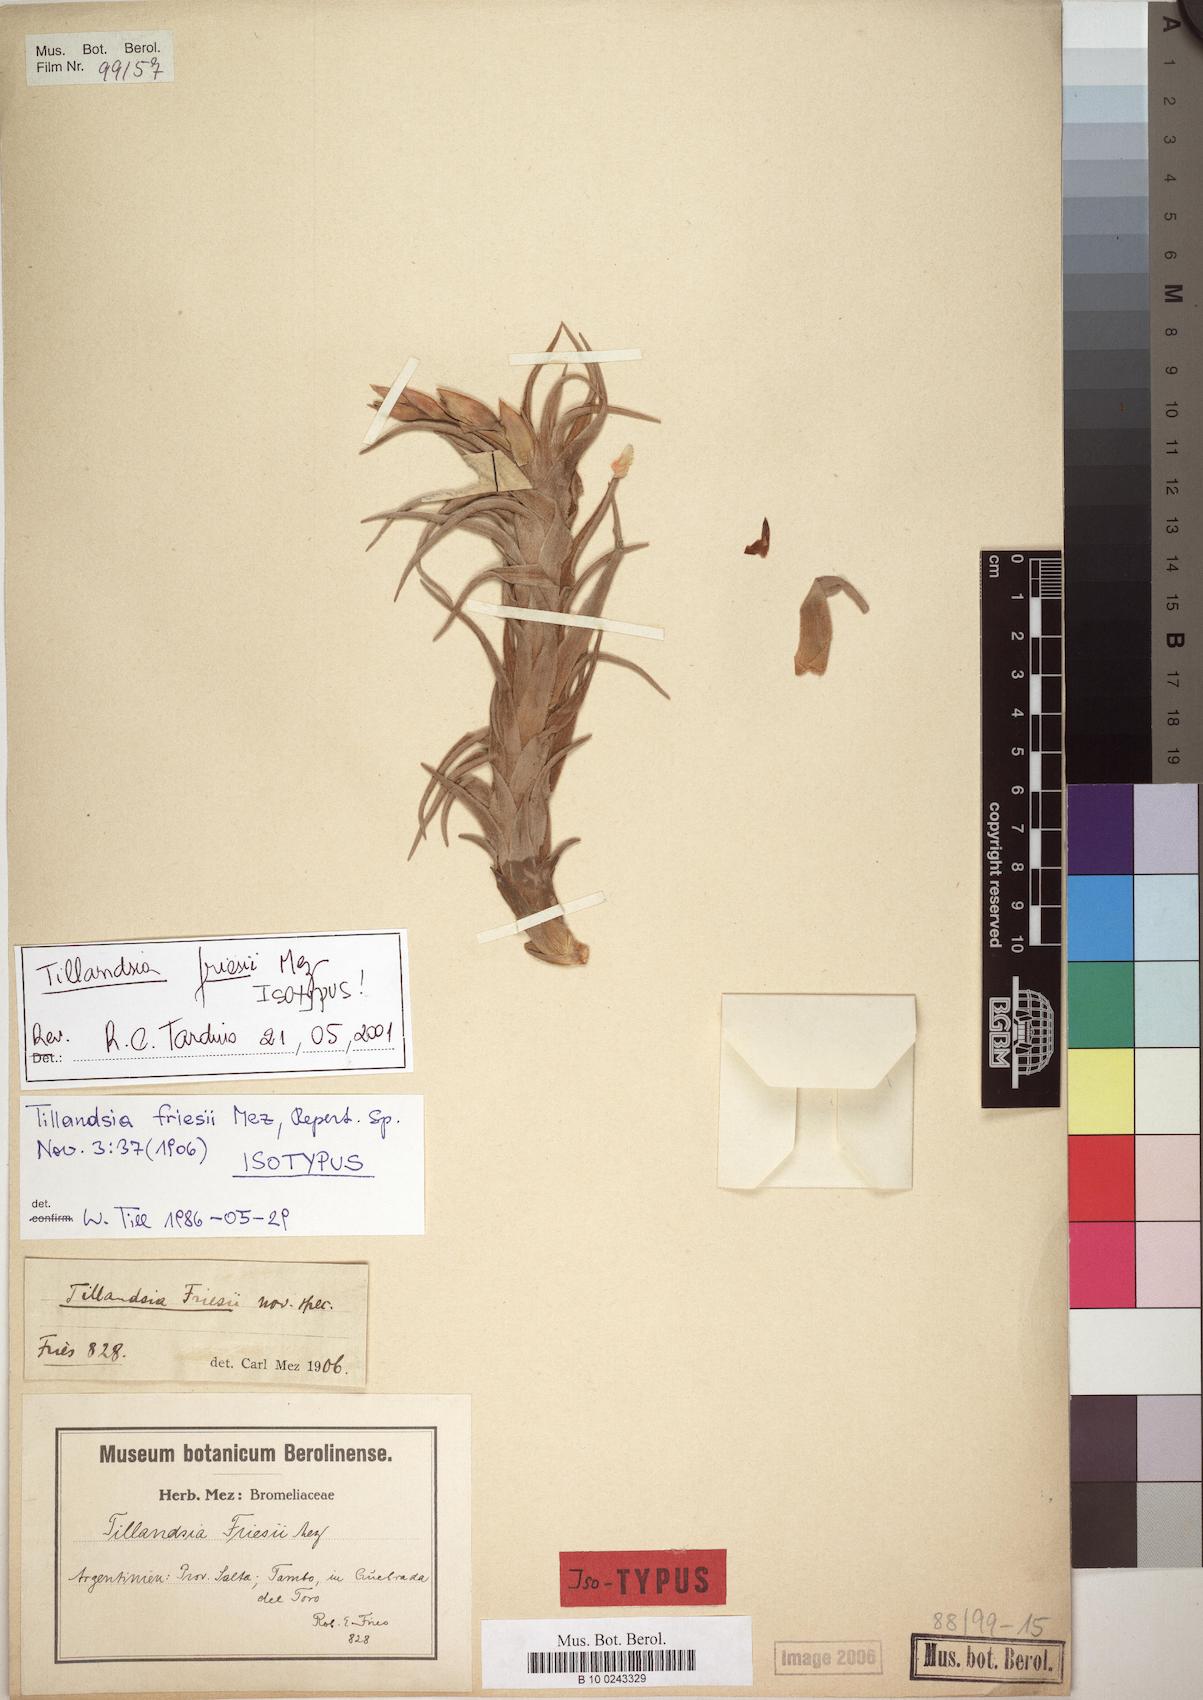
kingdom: Plantae
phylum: Tracheophyta
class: Liliopsida
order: Poales
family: Bromeliaceae
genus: Tillandsia
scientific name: Tillandsia friesii
